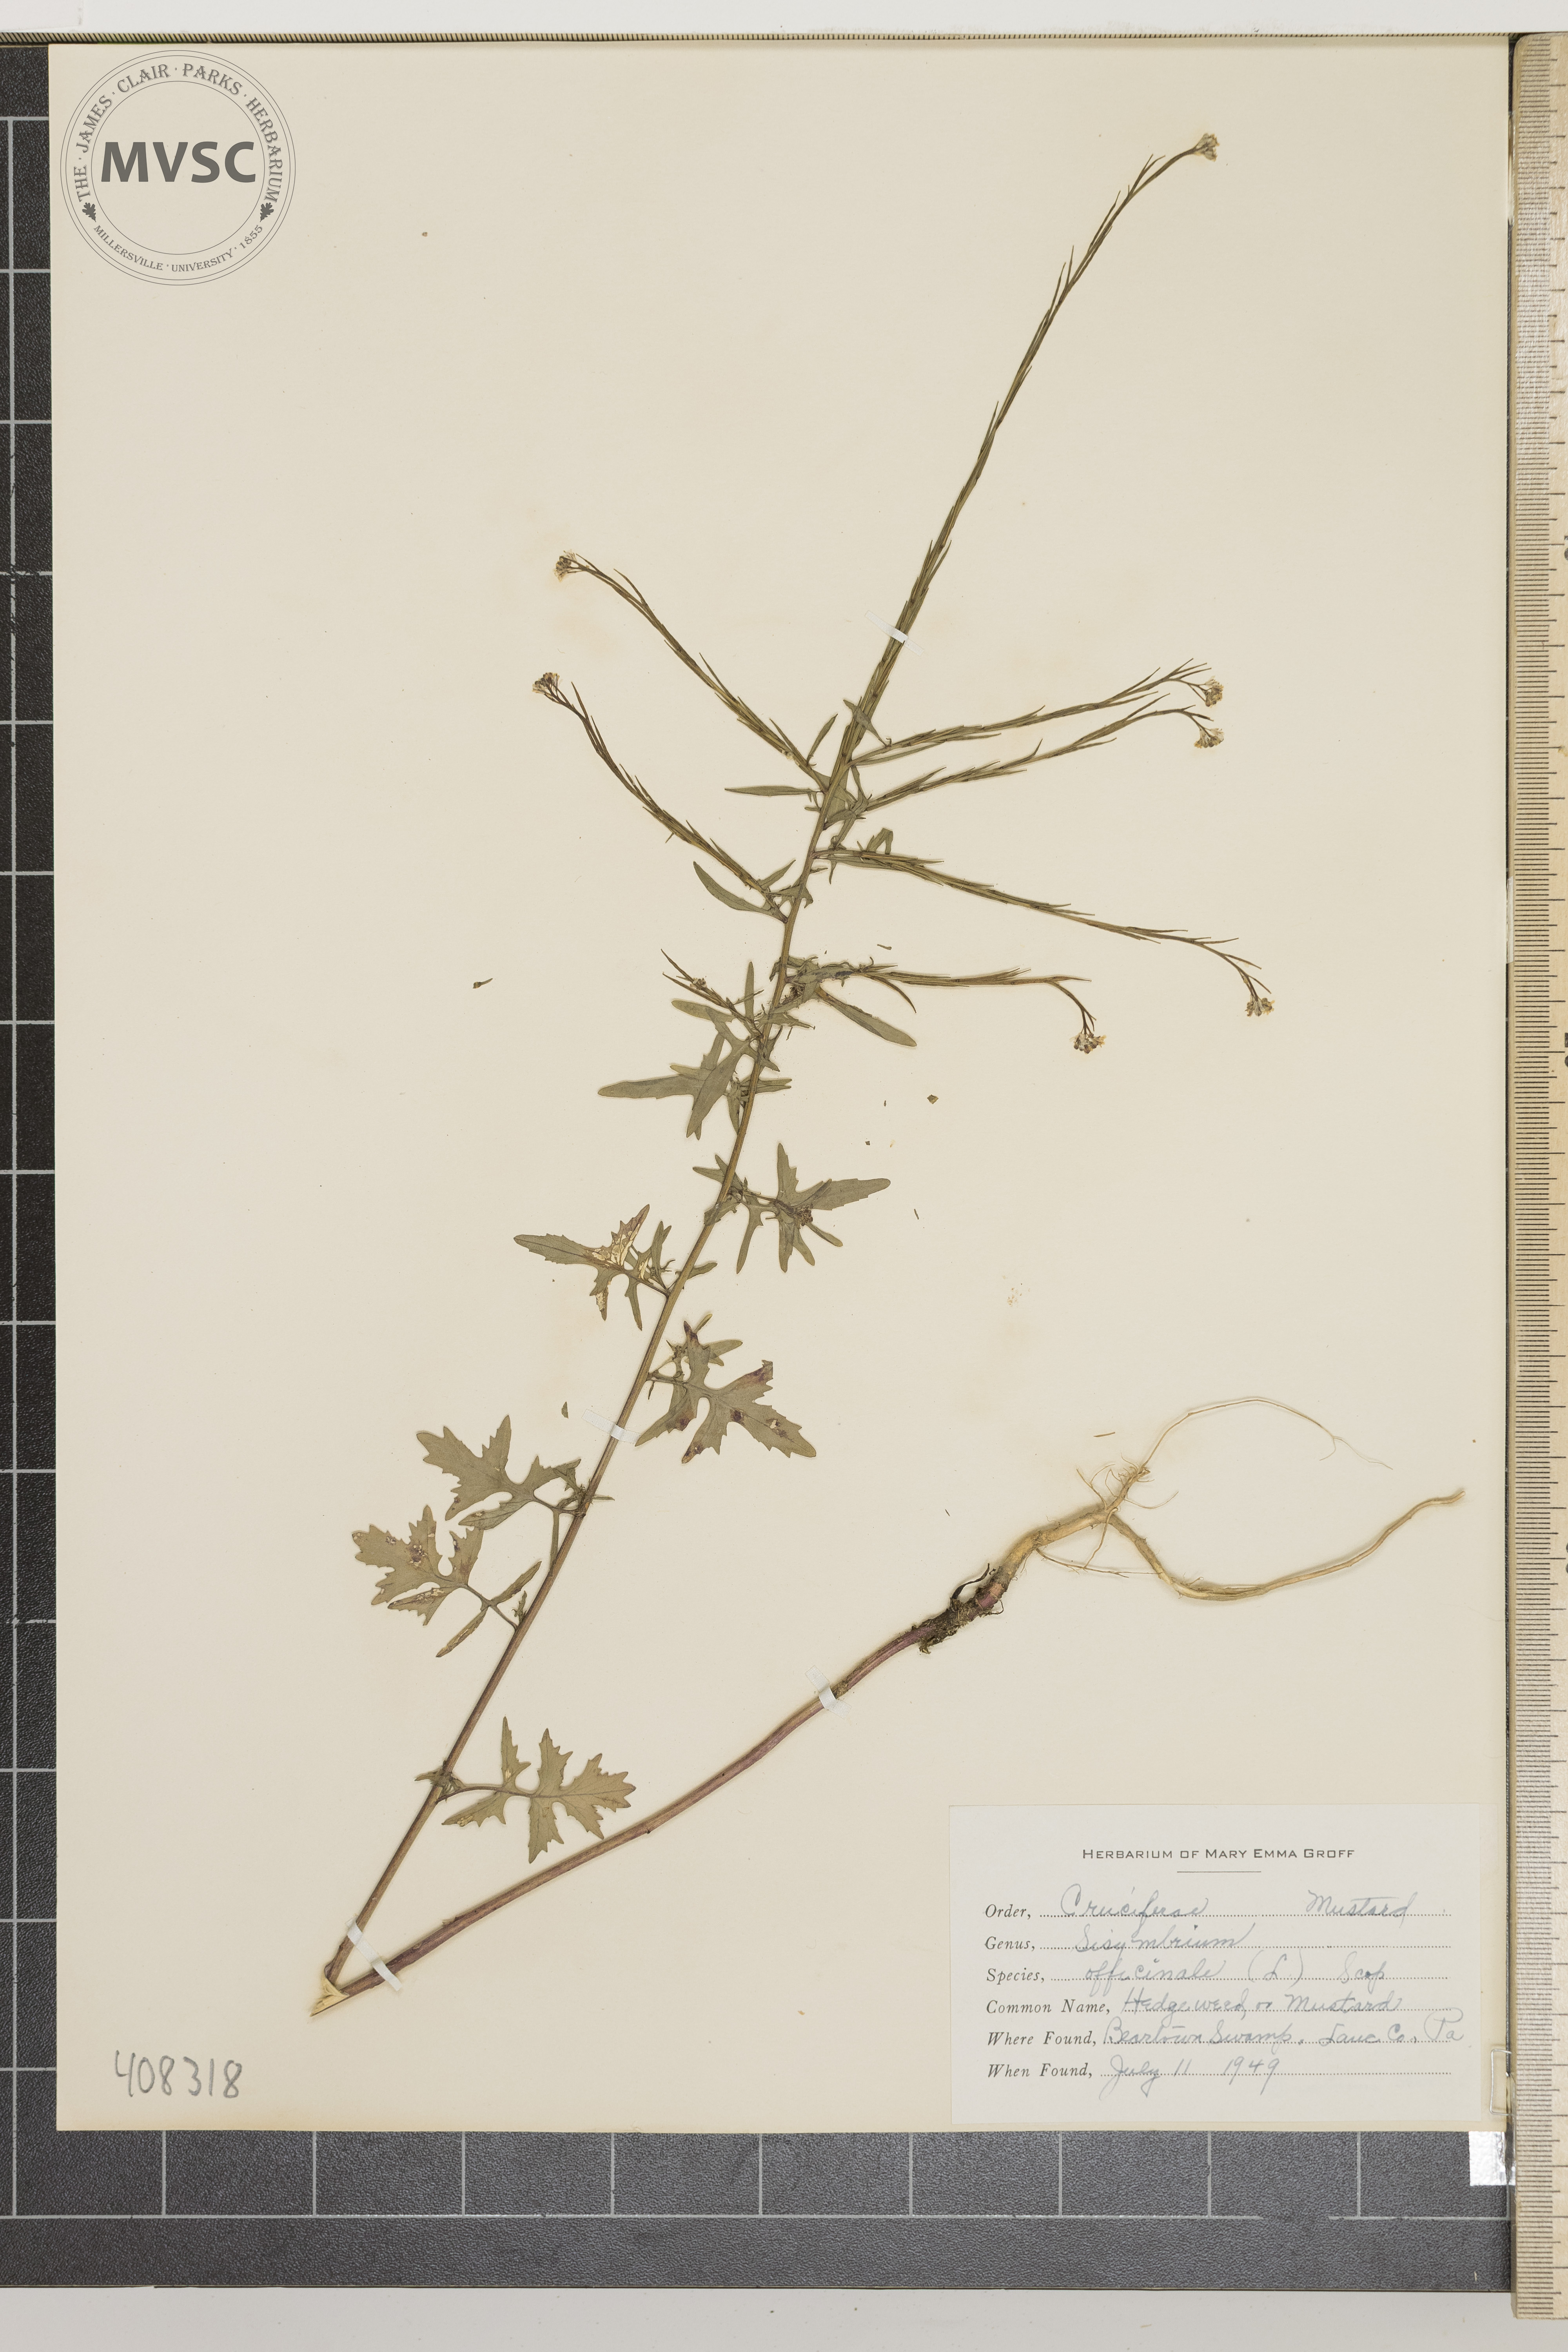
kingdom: Plantae
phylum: Tracheophyta
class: Magnoliopsida
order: Brassicales
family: Brassicaceae
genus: Sisymbrium
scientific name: Sisymbrium officinale
